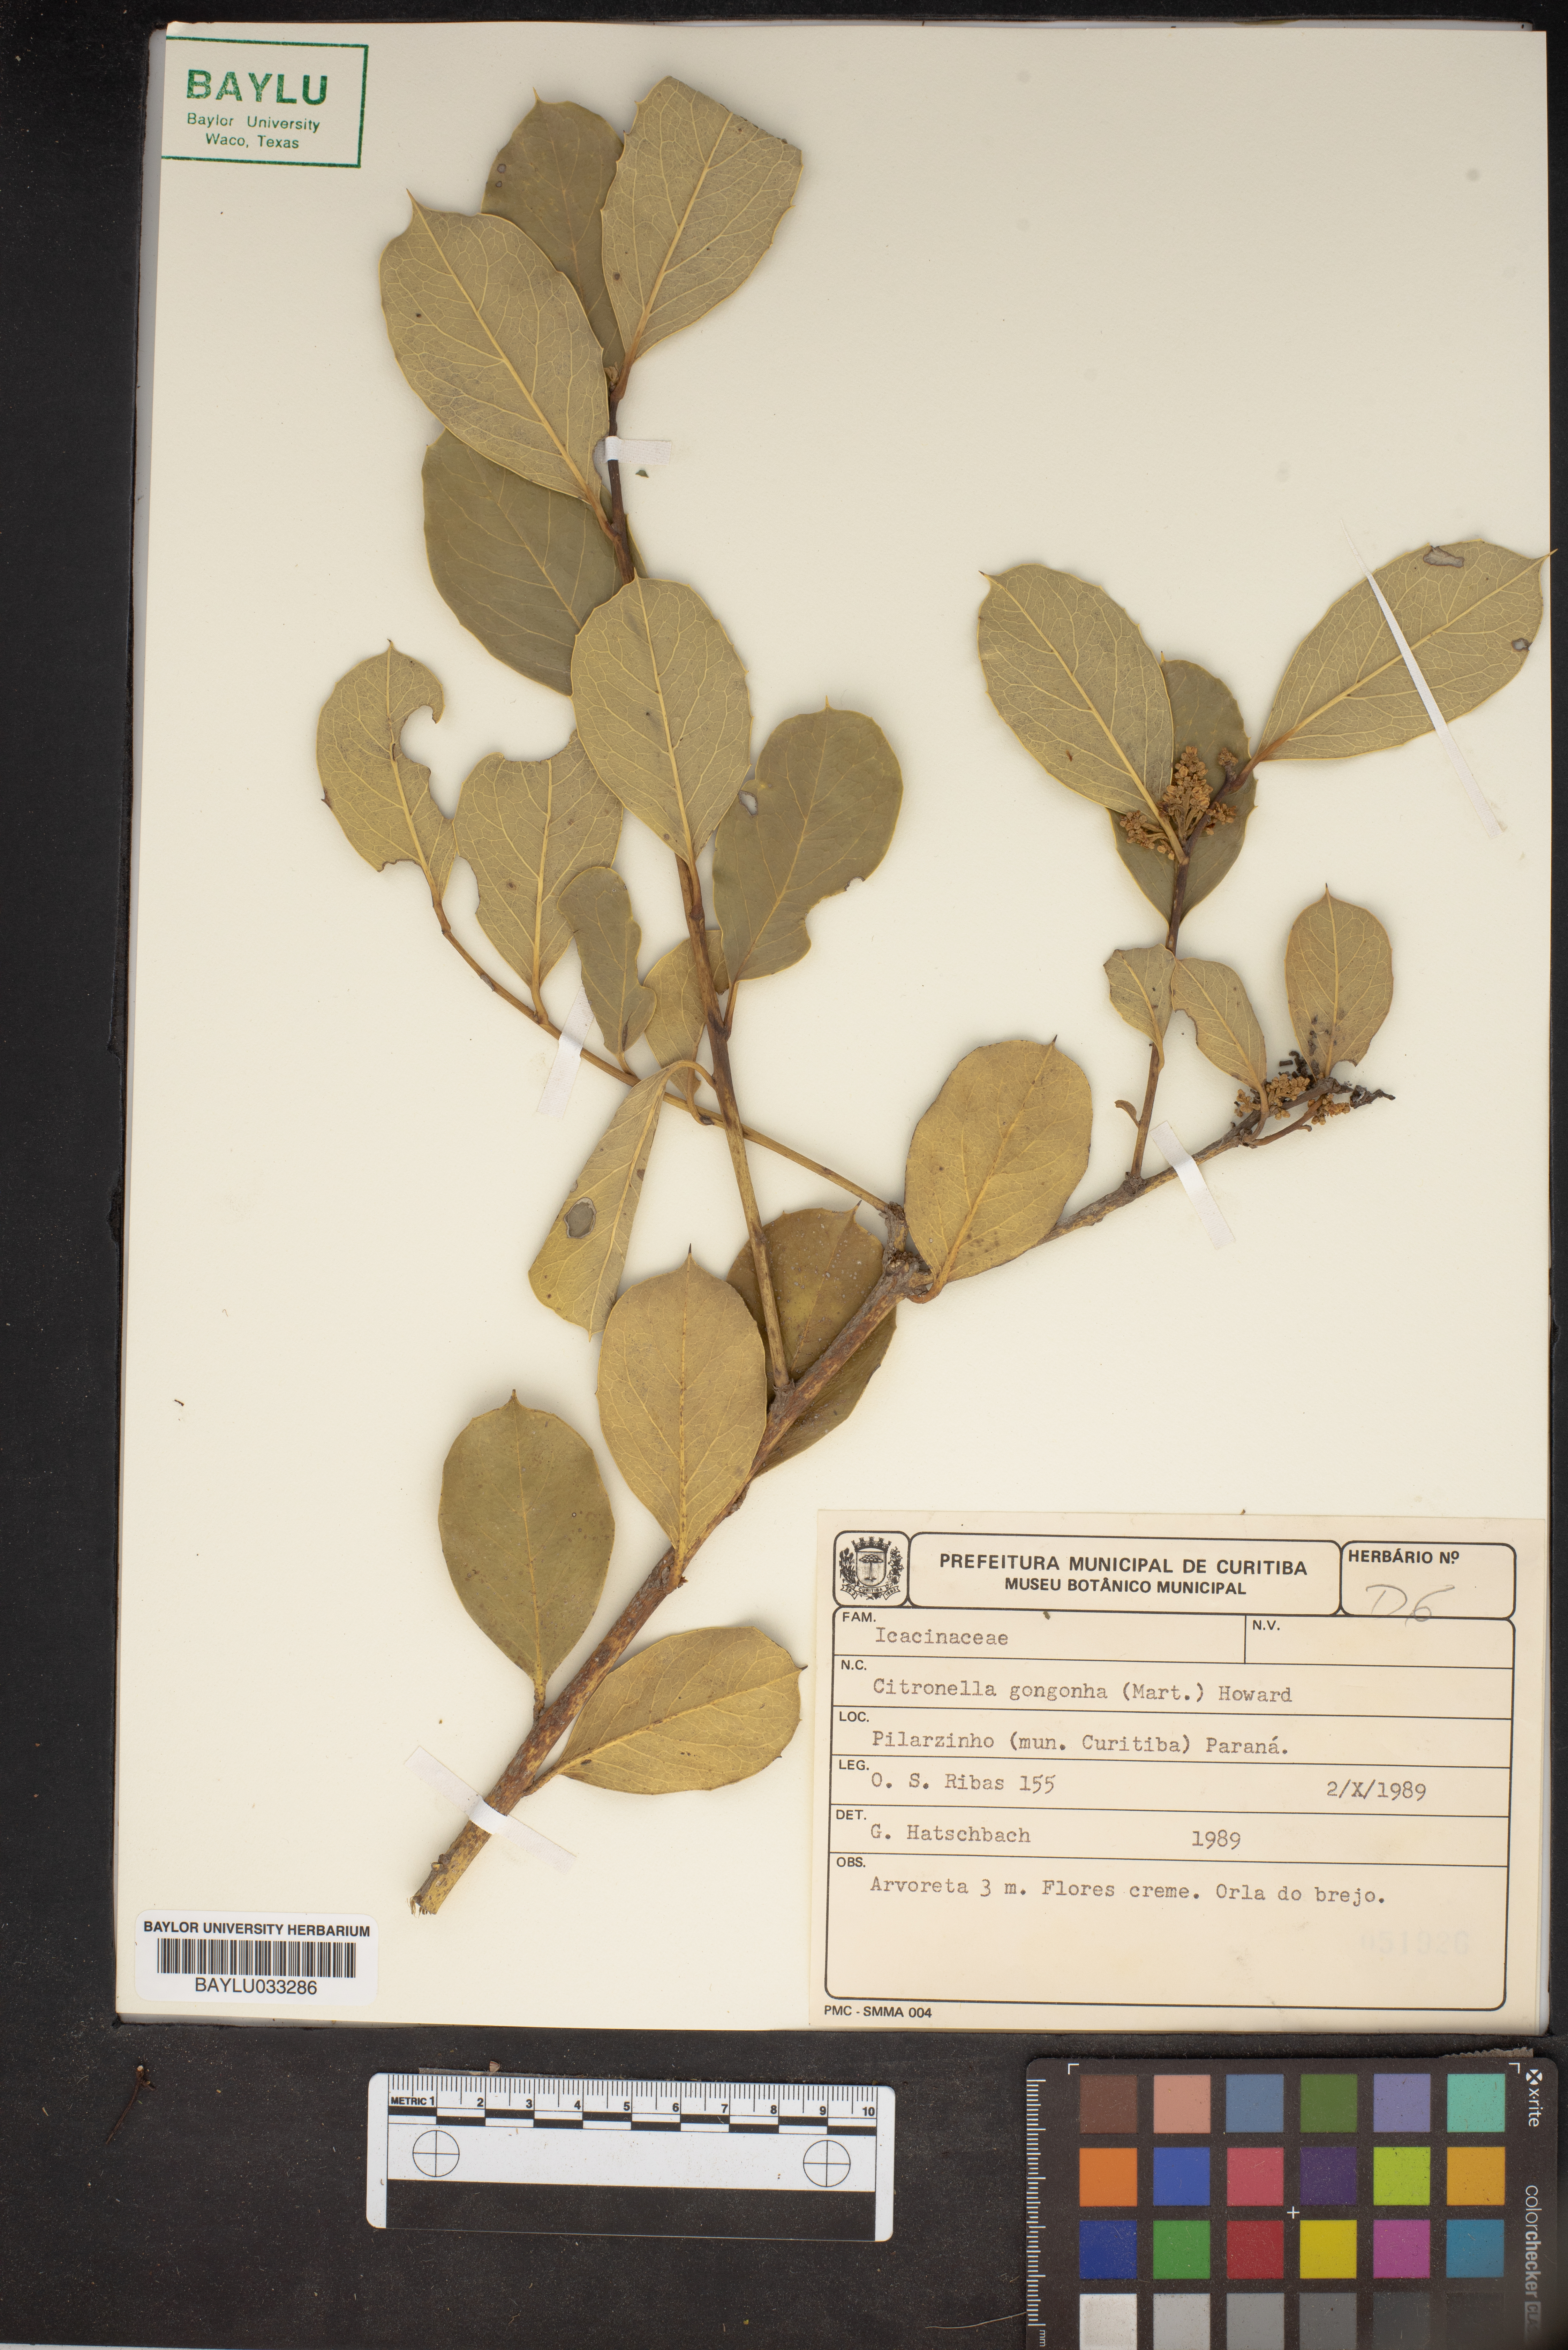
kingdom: Plantae
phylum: Tracheophyta
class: Magnoliopsida
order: Cardiopteridales
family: Cardiopteridaceae
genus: Citronella
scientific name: Citronella gongonha
